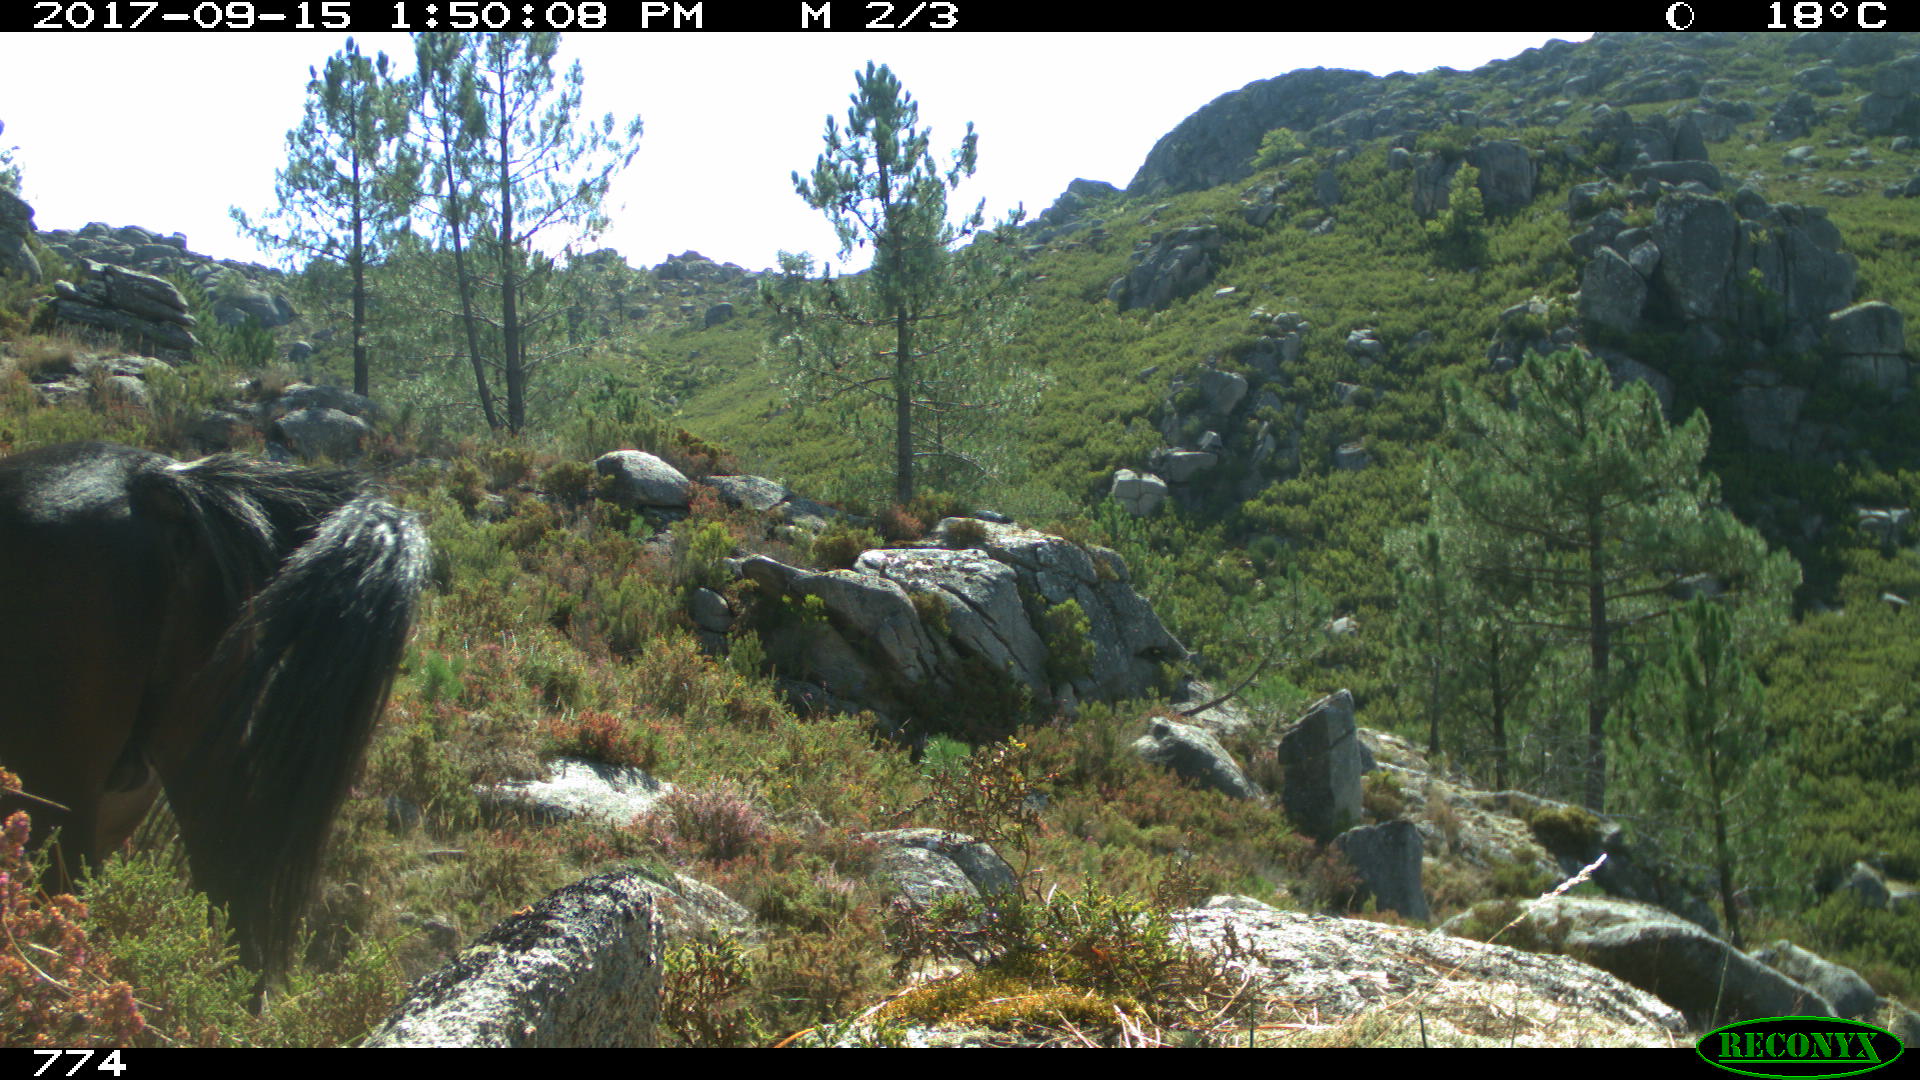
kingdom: Animalia
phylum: Chordata
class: Mammalia
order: Perissodactyla
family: Equidae
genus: Equus
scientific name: Equus caballus
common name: Horse
